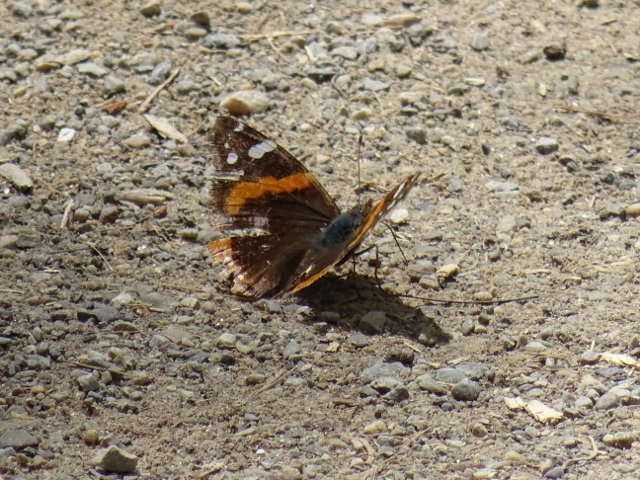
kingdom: Animalia
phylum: Arthropoda
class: Insecta
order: Lepidoptera
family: Nymphalidae
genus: Vanessa
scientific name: Vanessa atalanta
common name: Red Admiral
